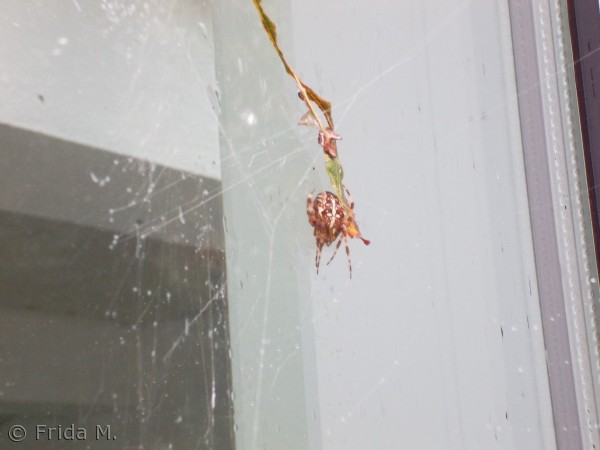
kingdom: Animalia
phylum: Arthropoda
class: Arachnida
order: Araneae
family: Araneidae
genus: Araneus
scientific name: Araneus diadematus
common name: Korsedderkop
